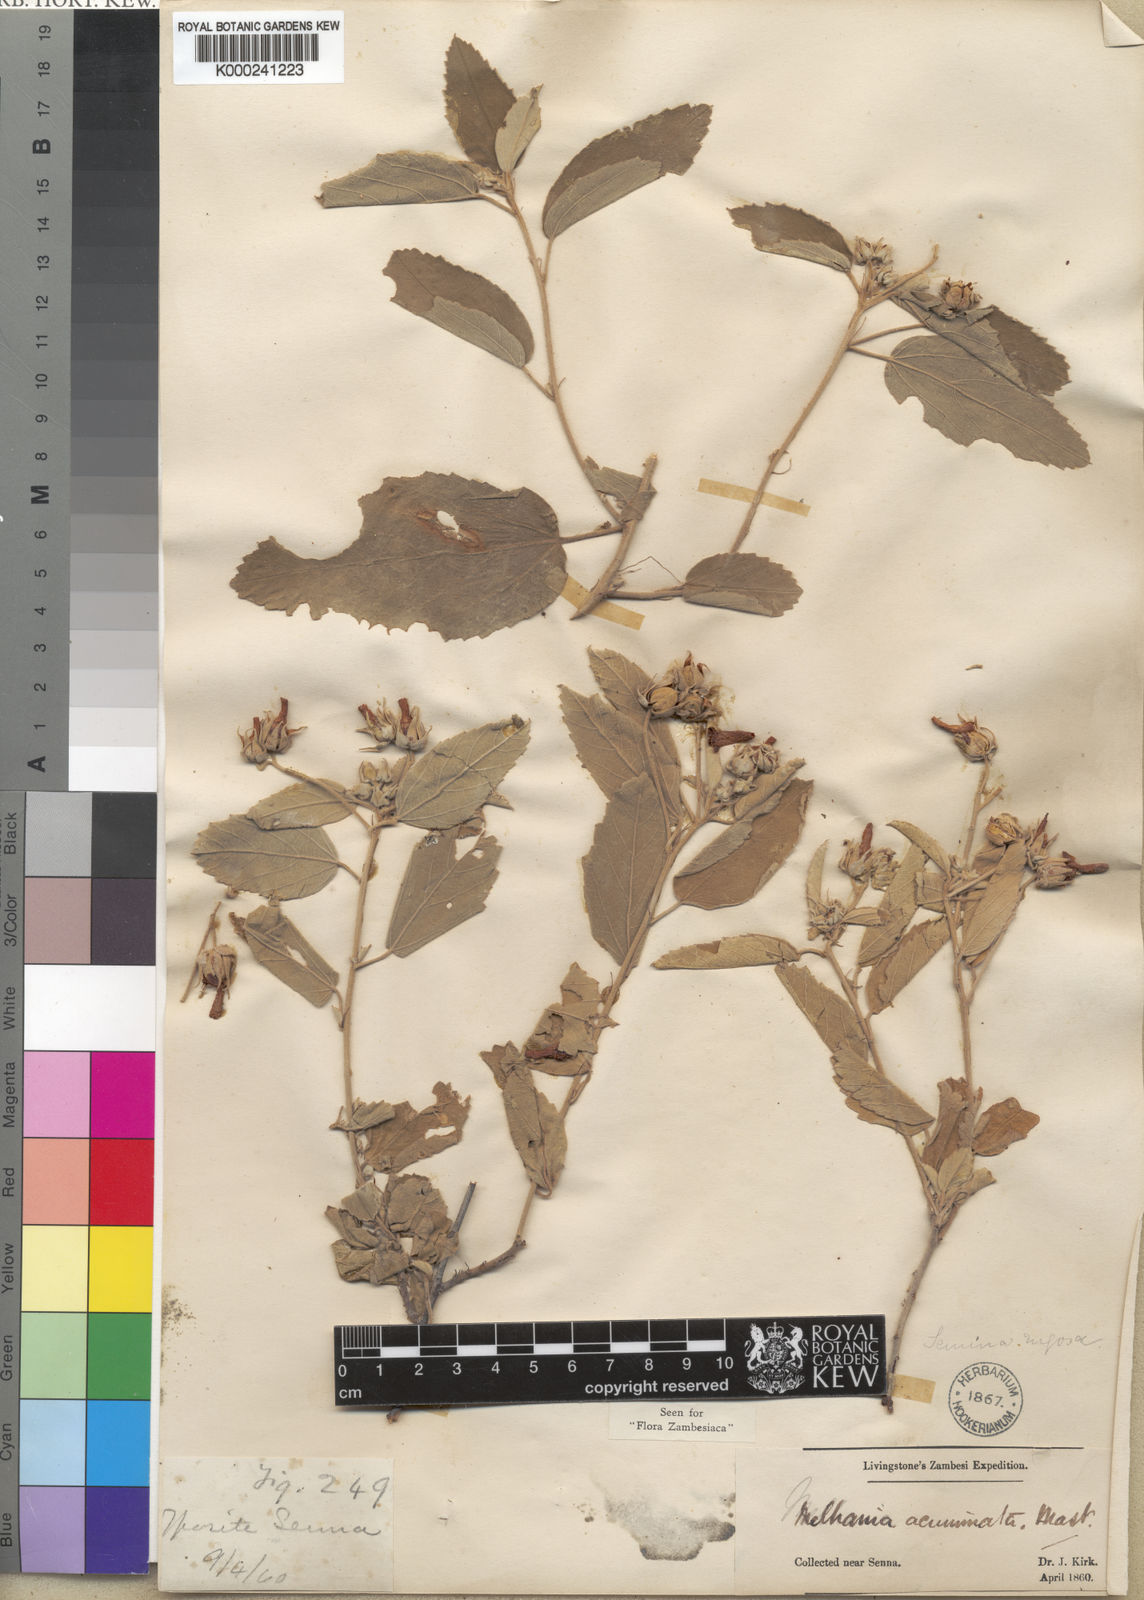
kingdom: Plantae
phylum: Tracheophyta
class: Magnoliopsida
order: Malvales
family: Malvaceae
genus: Melhania
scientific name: Melhania acuminata
